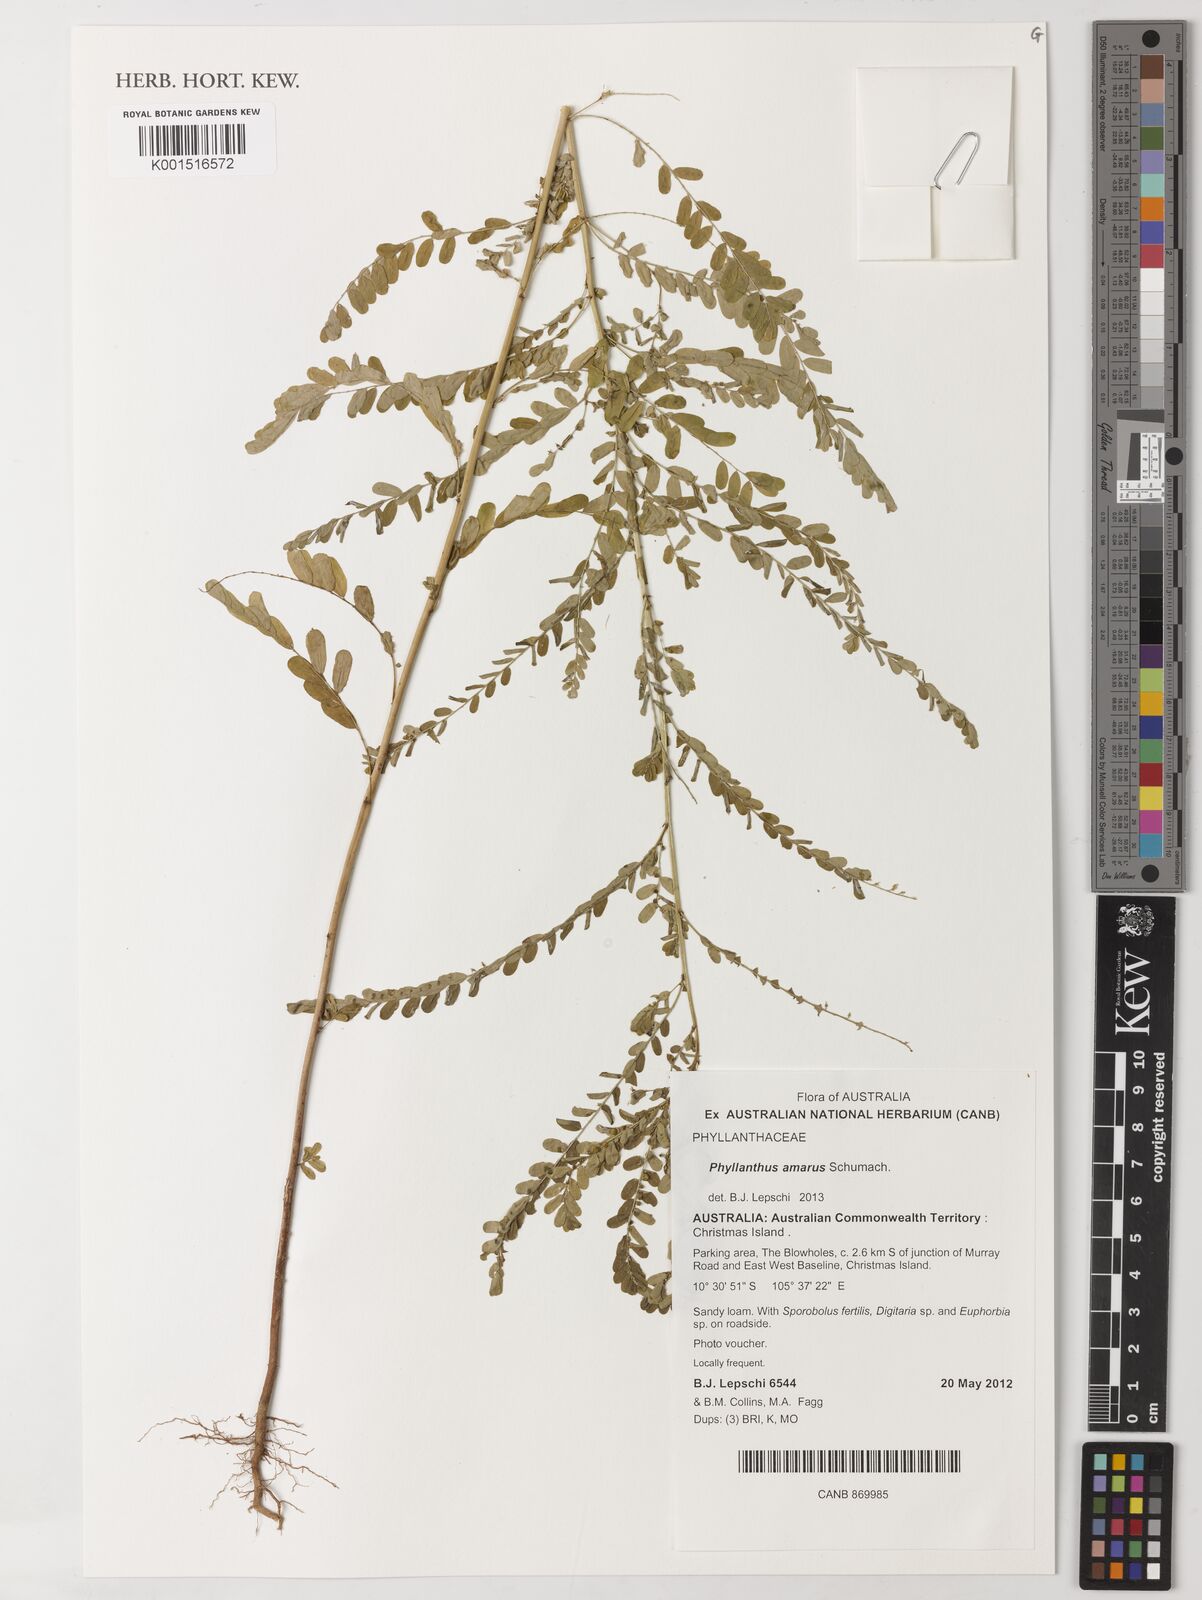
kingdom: Plantae
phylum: Tracheophyta
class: Magnoliopsida
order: Malpighiales
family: Phyllanthaceae
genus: Phyllanthus
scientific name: Phyllanthus amarus
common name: Carry me seed
